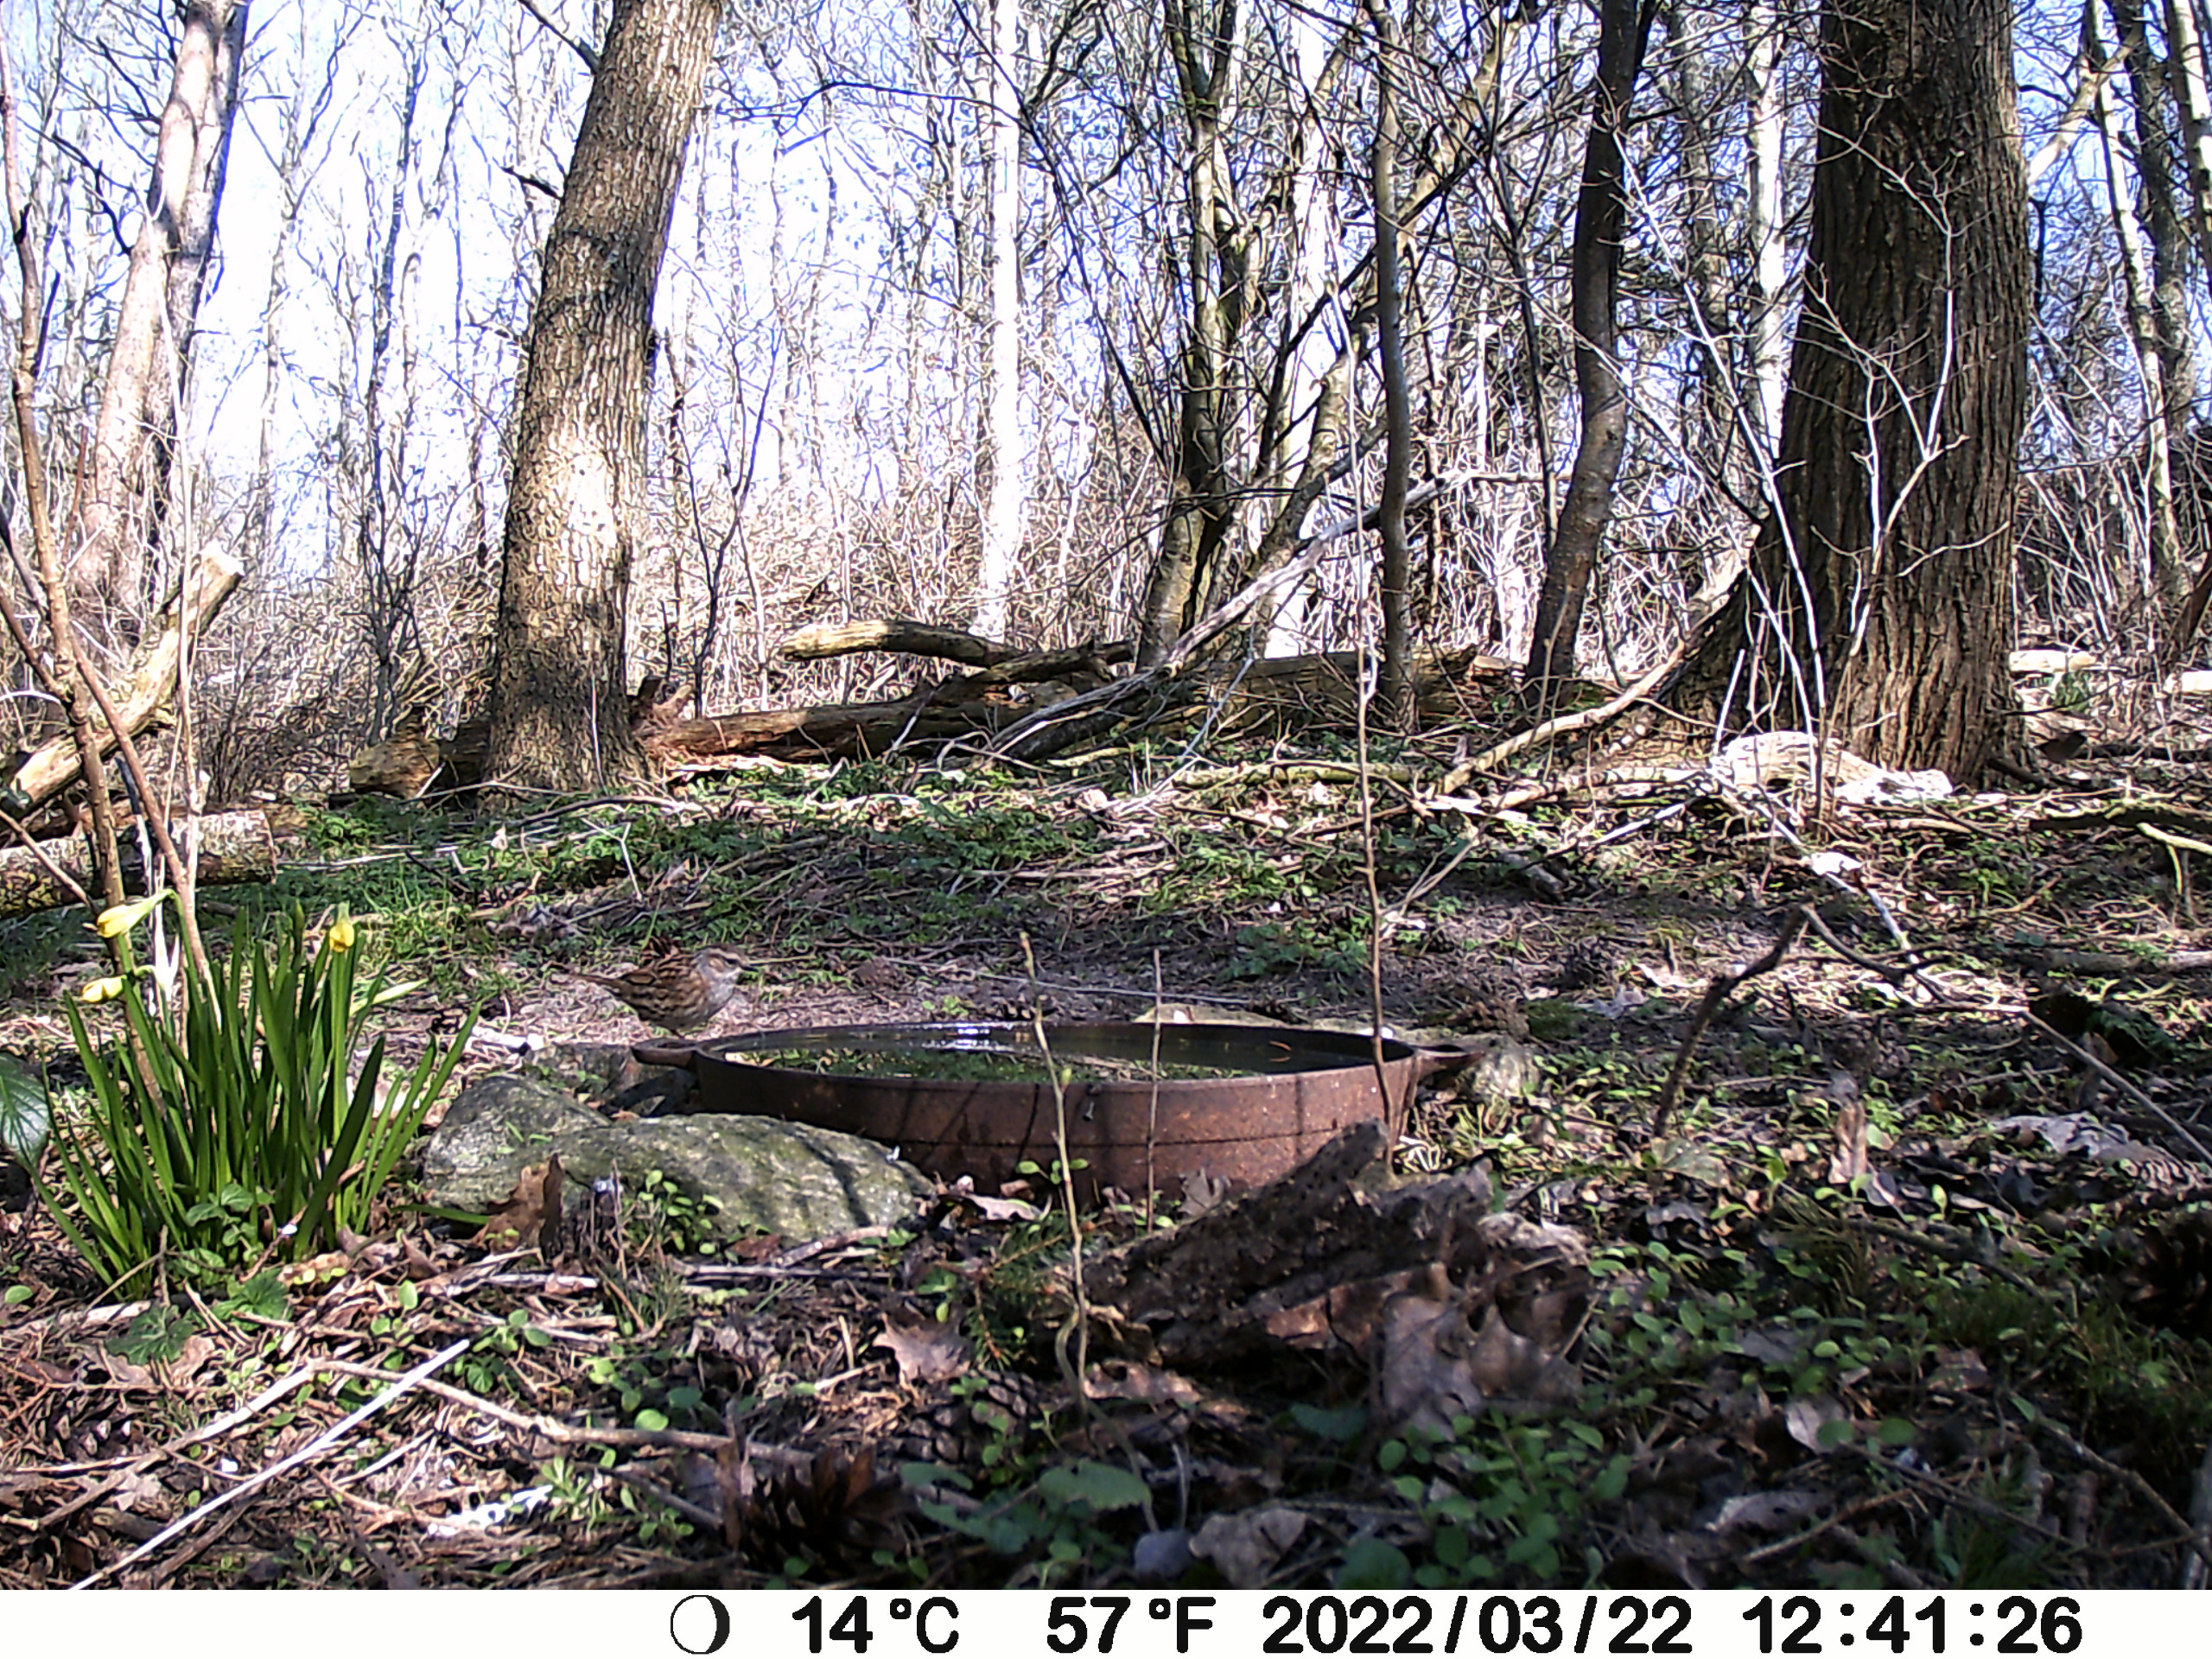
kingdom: Animalia
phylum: Chordata
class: Aves
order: Passeriformes
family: Prunellidae
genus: Prunella
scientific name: Prunella modularis
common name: Jernspurv
